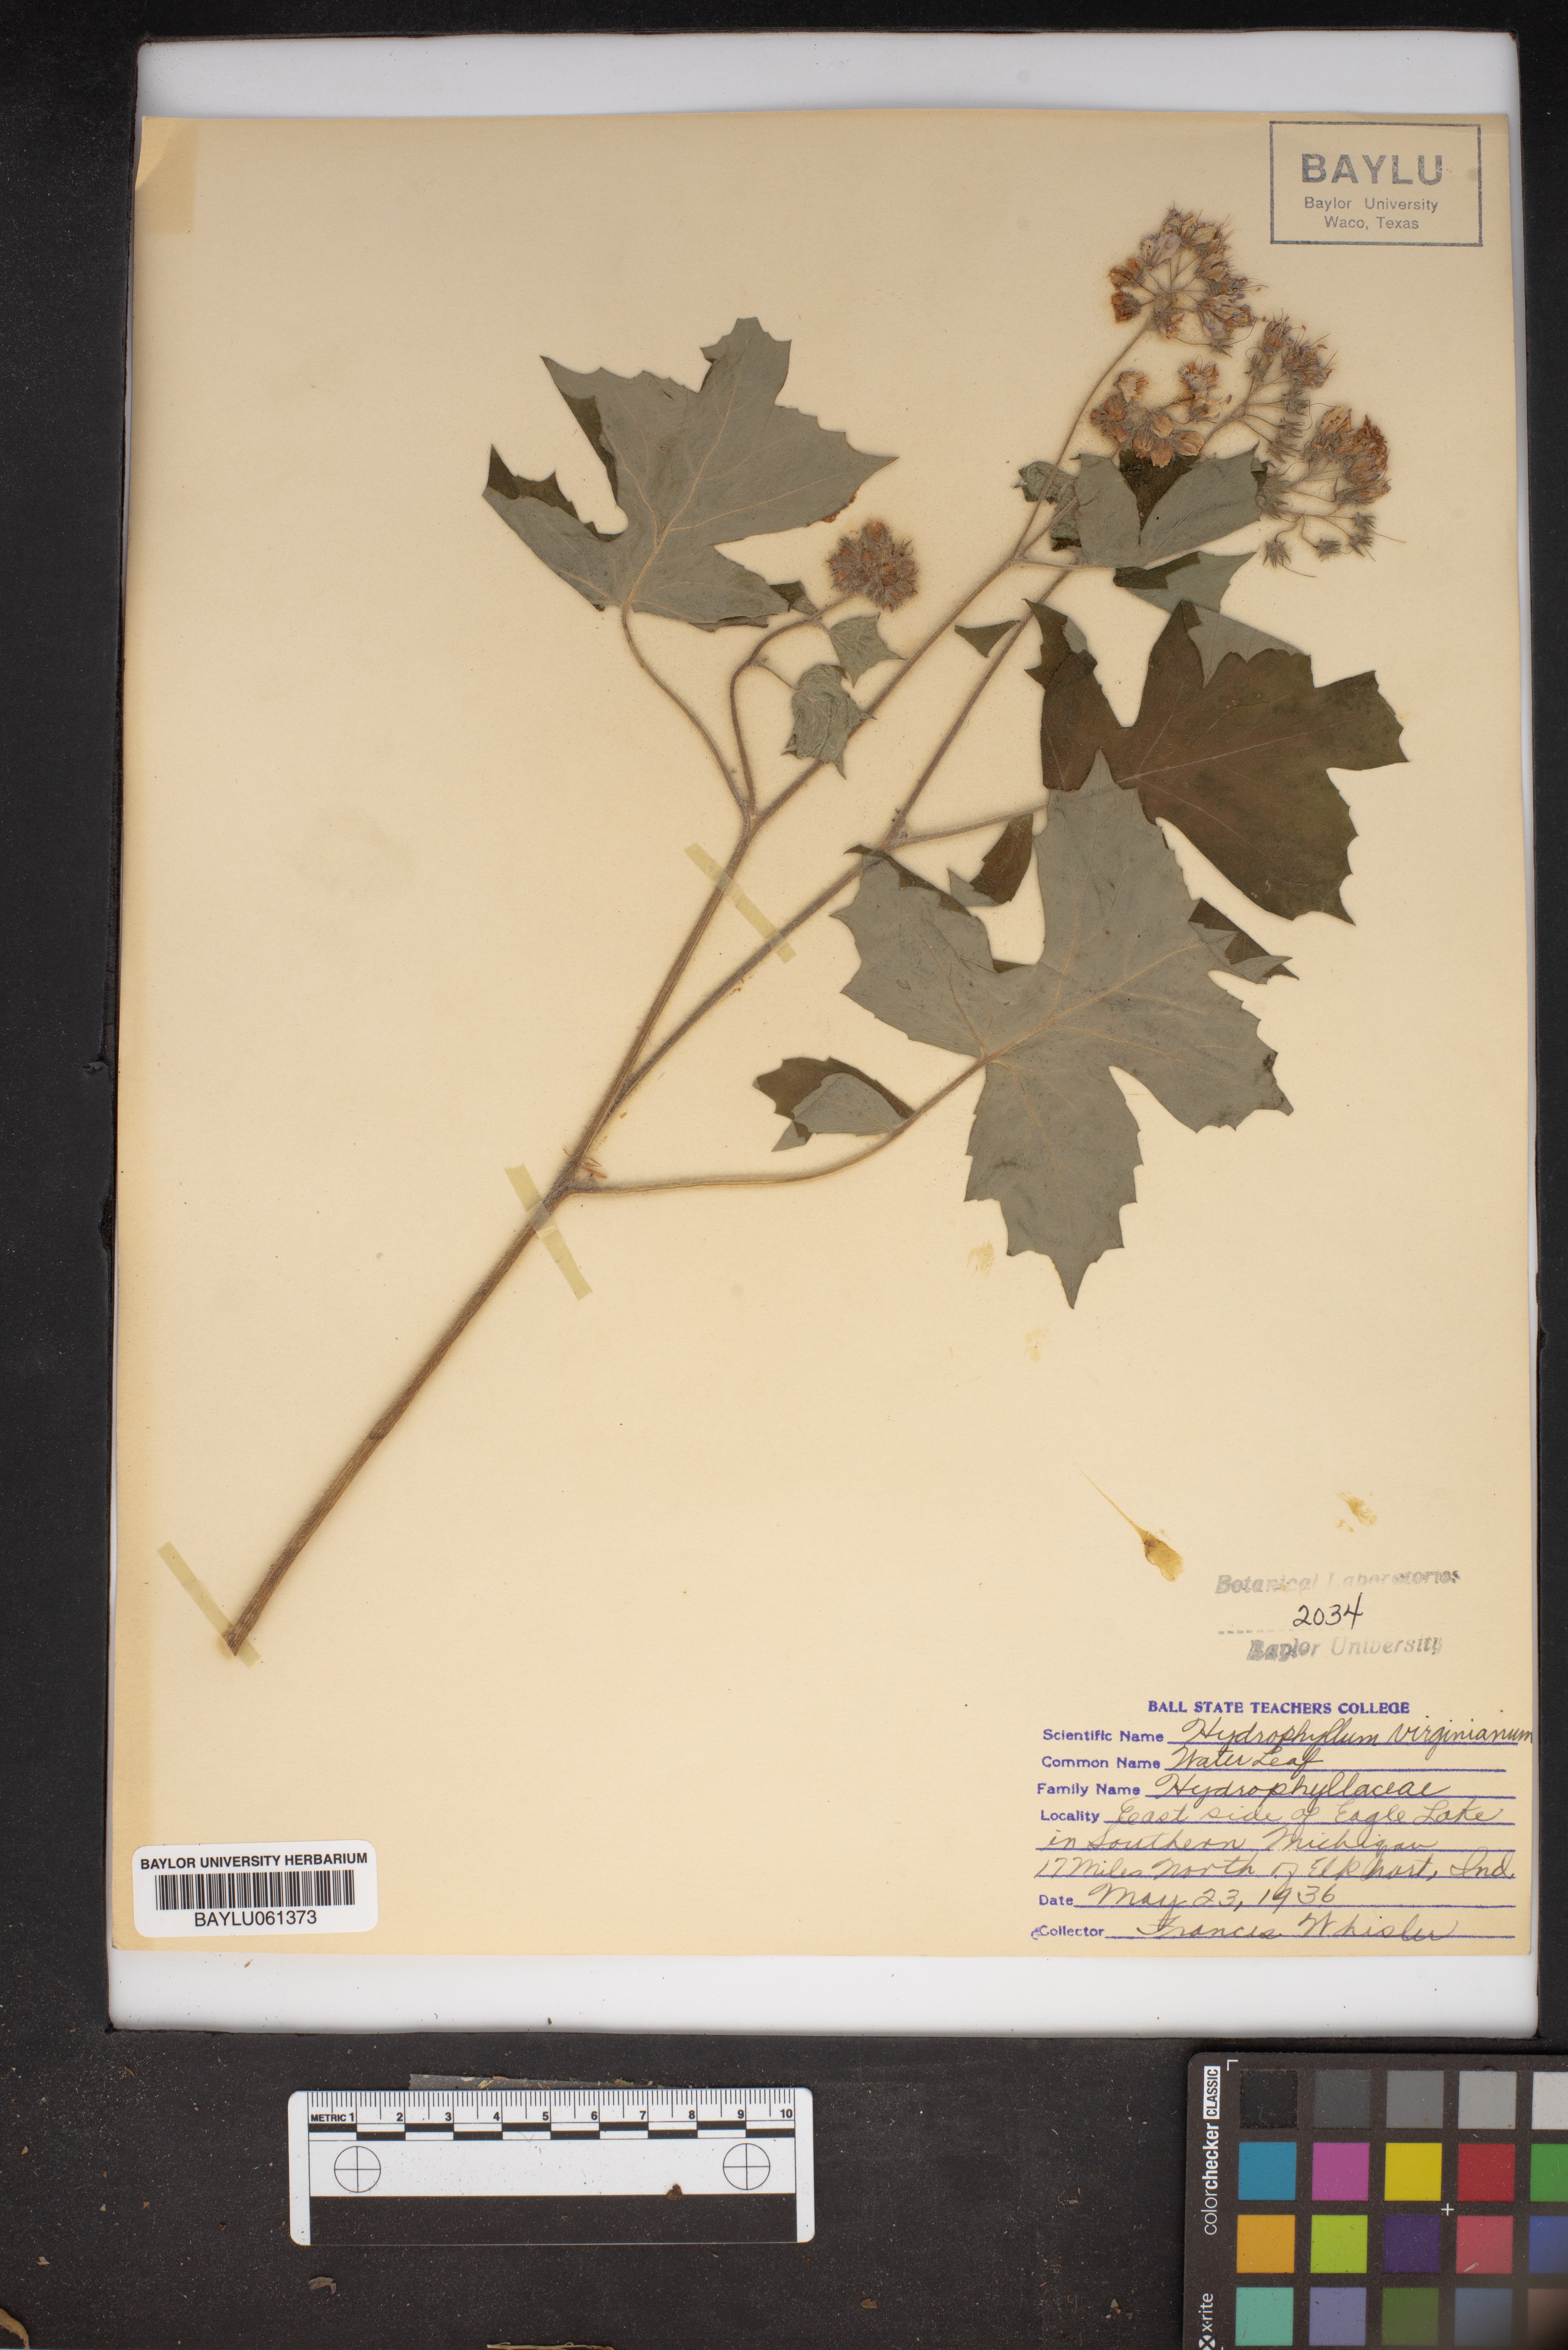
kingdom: Plantae
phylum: Tracheophyta
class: Magnoliopsida
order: Boraginales
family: Hydrophyllaceae
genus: Hydrophyllum
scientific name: Hydrophyllum virginianum
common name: Virginia waterleaf
